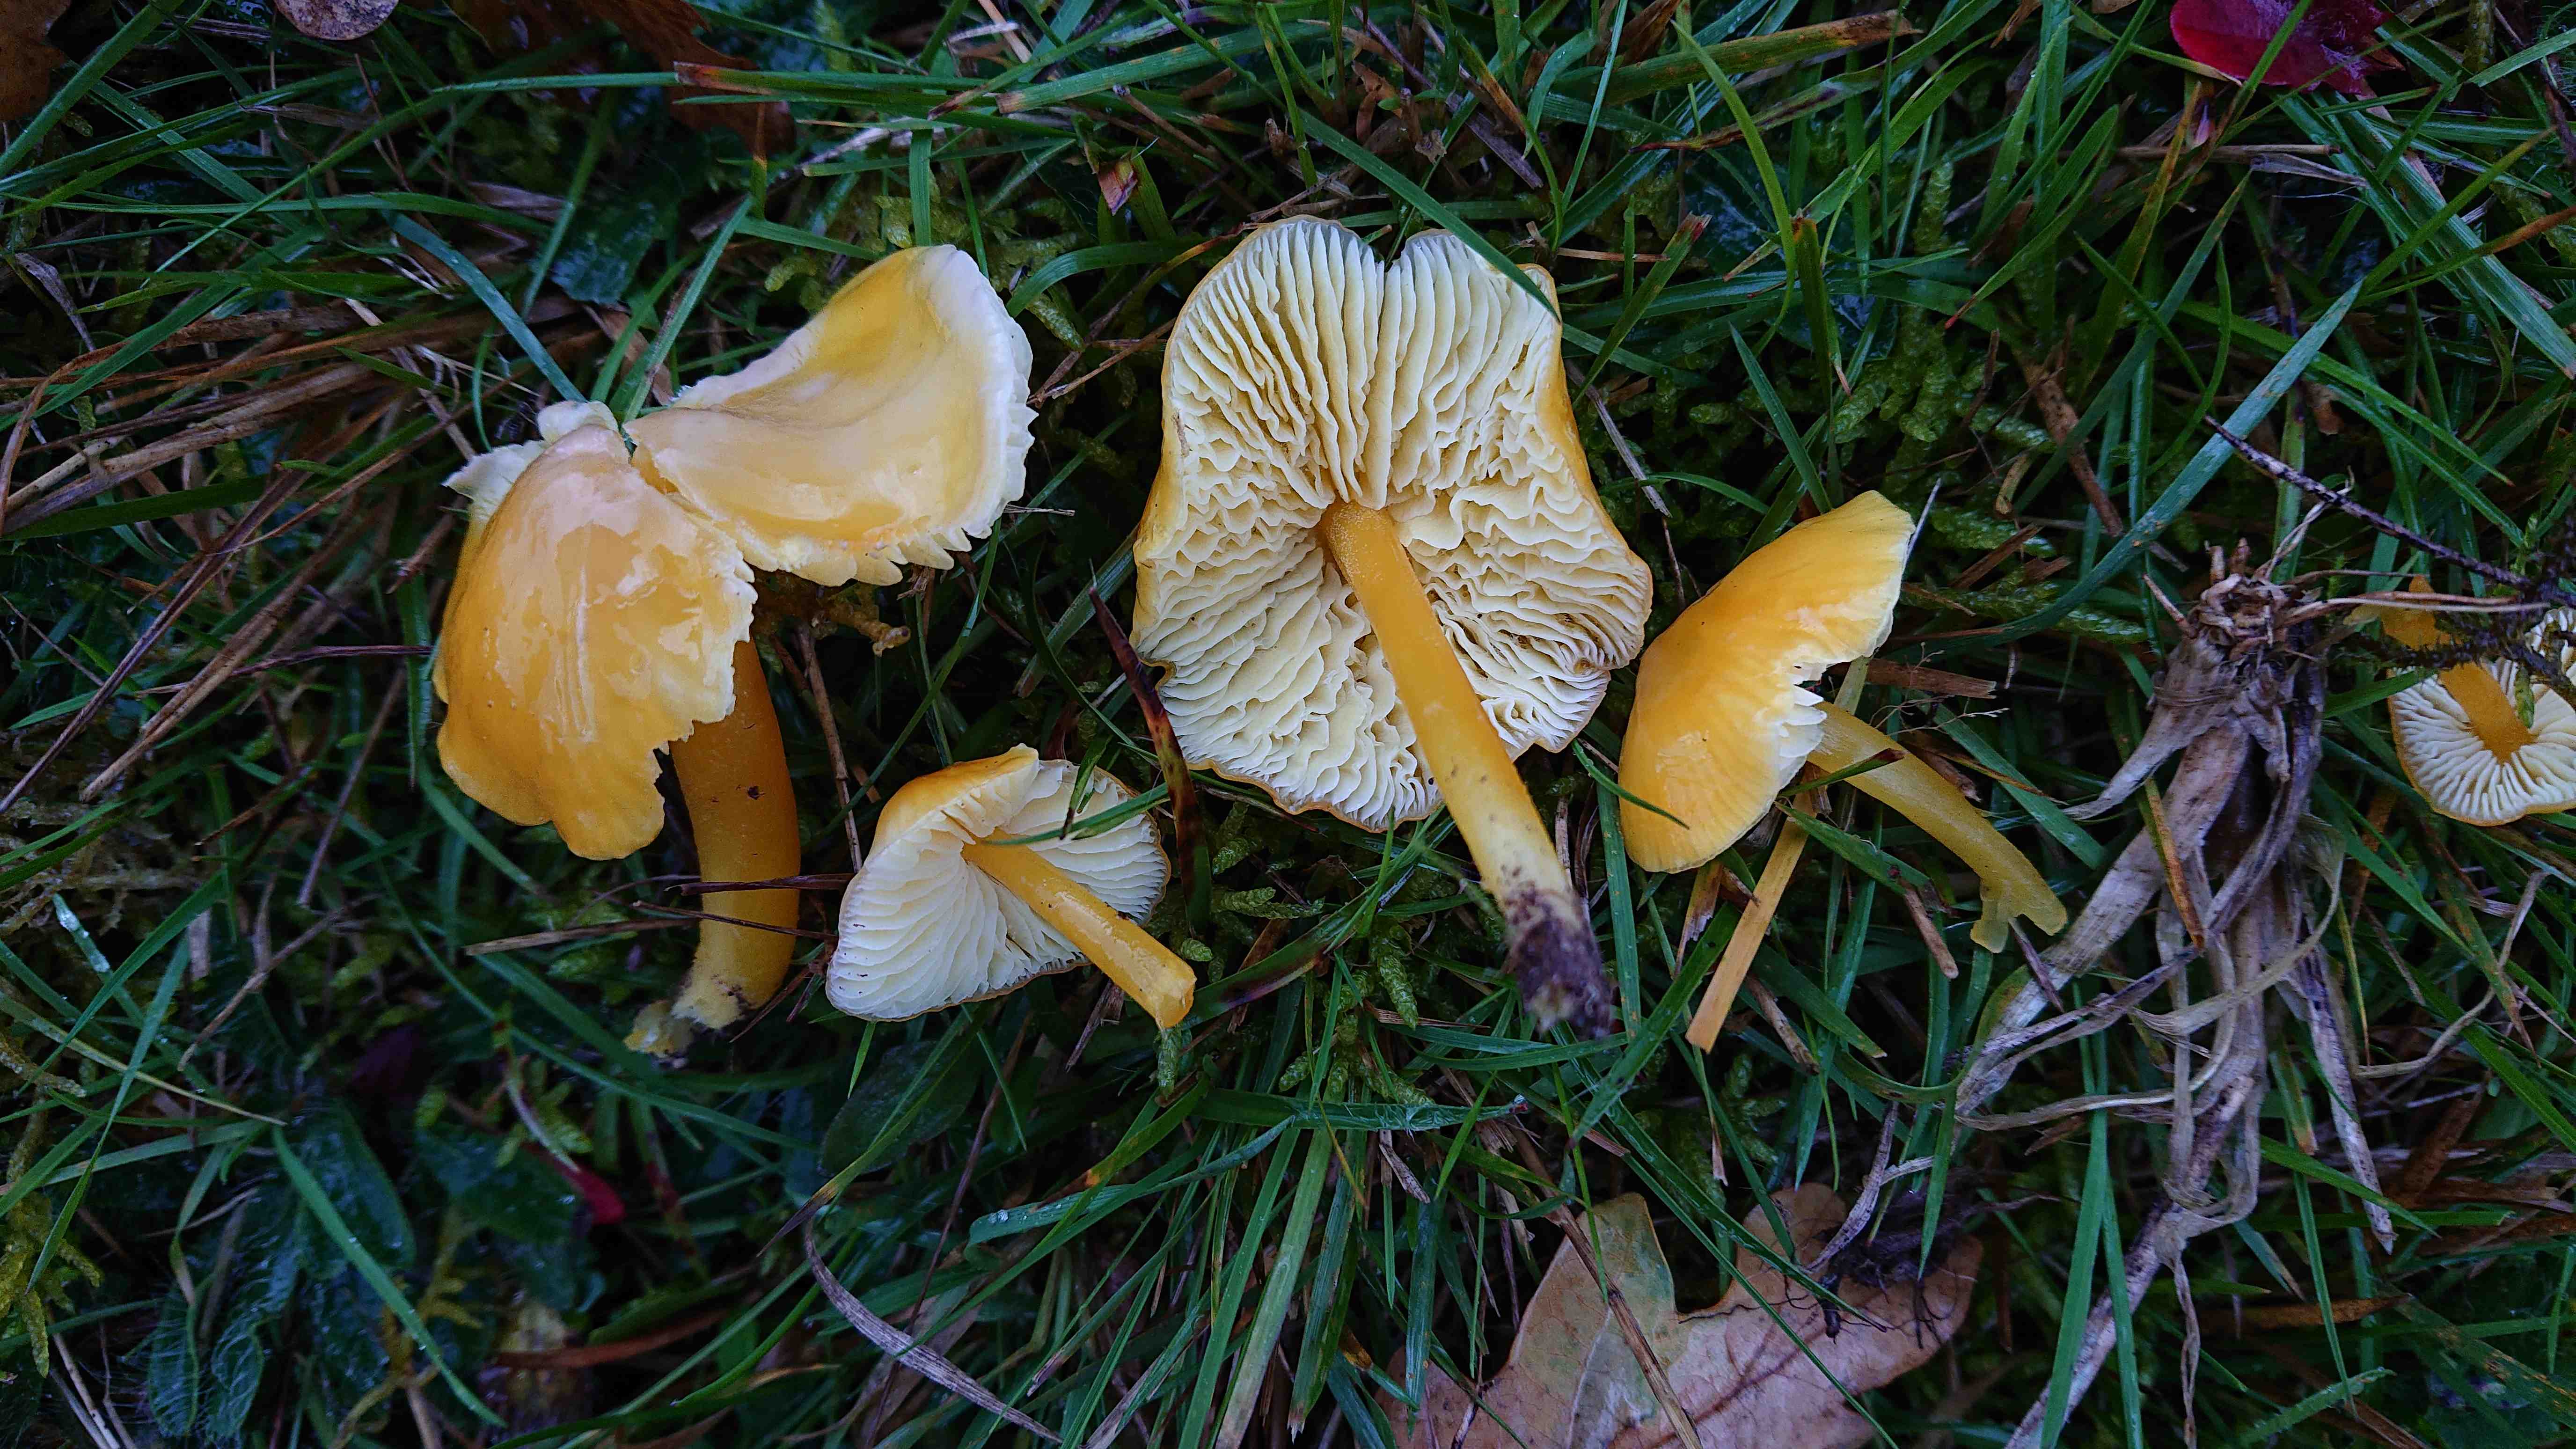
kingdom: Fungi
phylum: Basidiomycota
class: Agaricomycetes
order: Agaricales
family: Hygrophoraceae
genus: Hygrocybe
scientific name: Hygrocybe chlorophana
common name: gul vokshat
